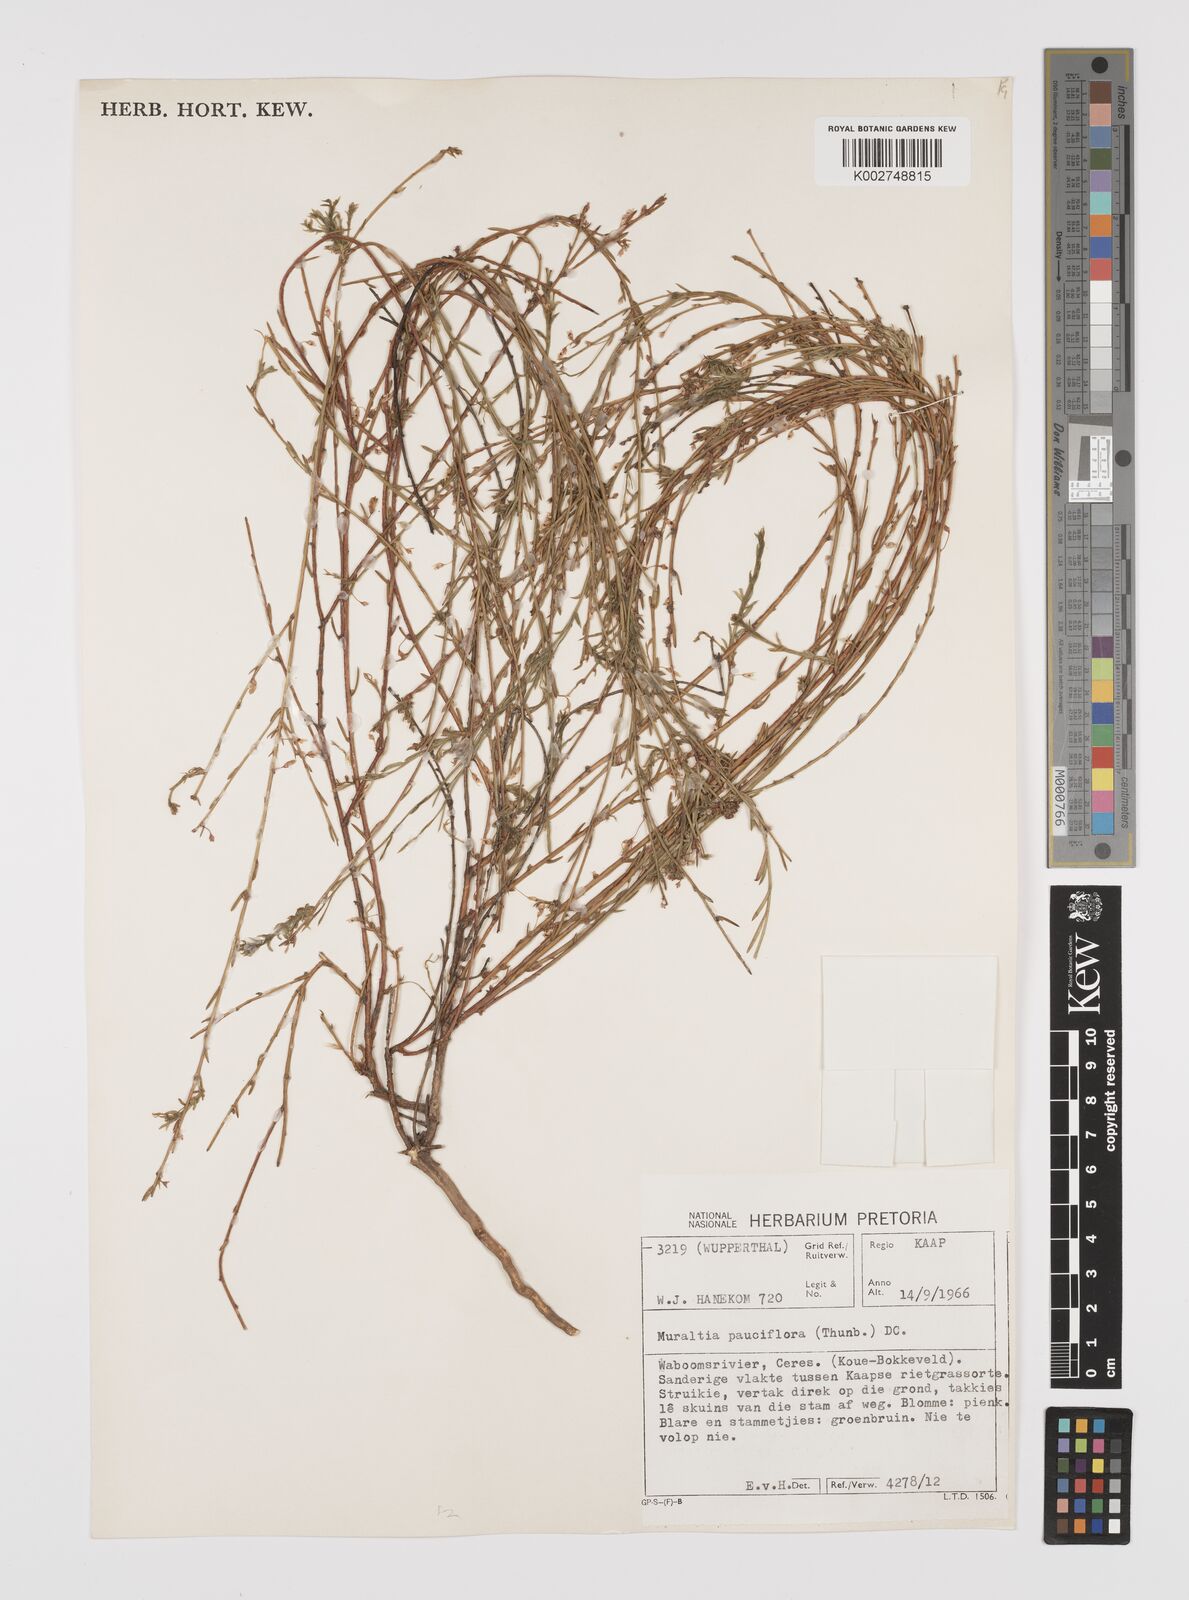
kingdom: Plantae
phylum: Tracheophyta
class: Magnoliopsida
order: Fabales
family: Polygalaceae
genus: Muraltia
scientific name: Muraltia pauciflora
